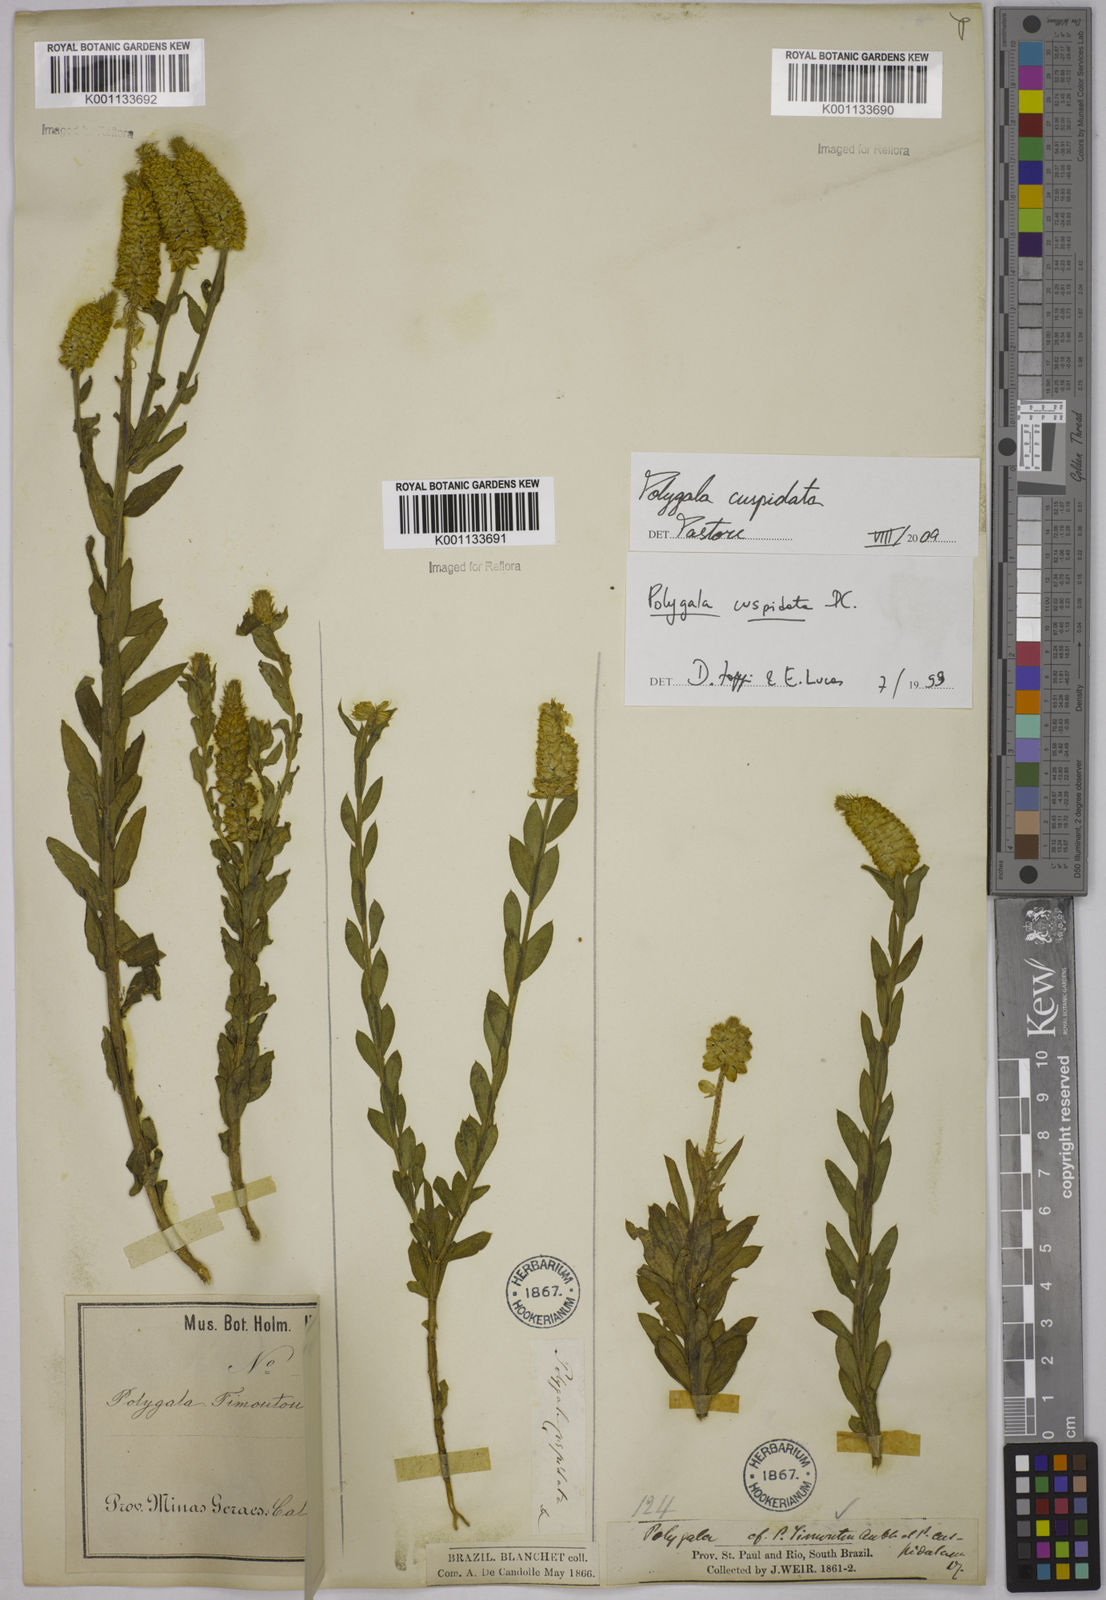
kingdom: Plantae
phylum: Tracheophyta
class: Magnoliopsida
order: Fabales
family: Polygalaceae
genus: Polygala
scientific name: Polygala cuspidata
